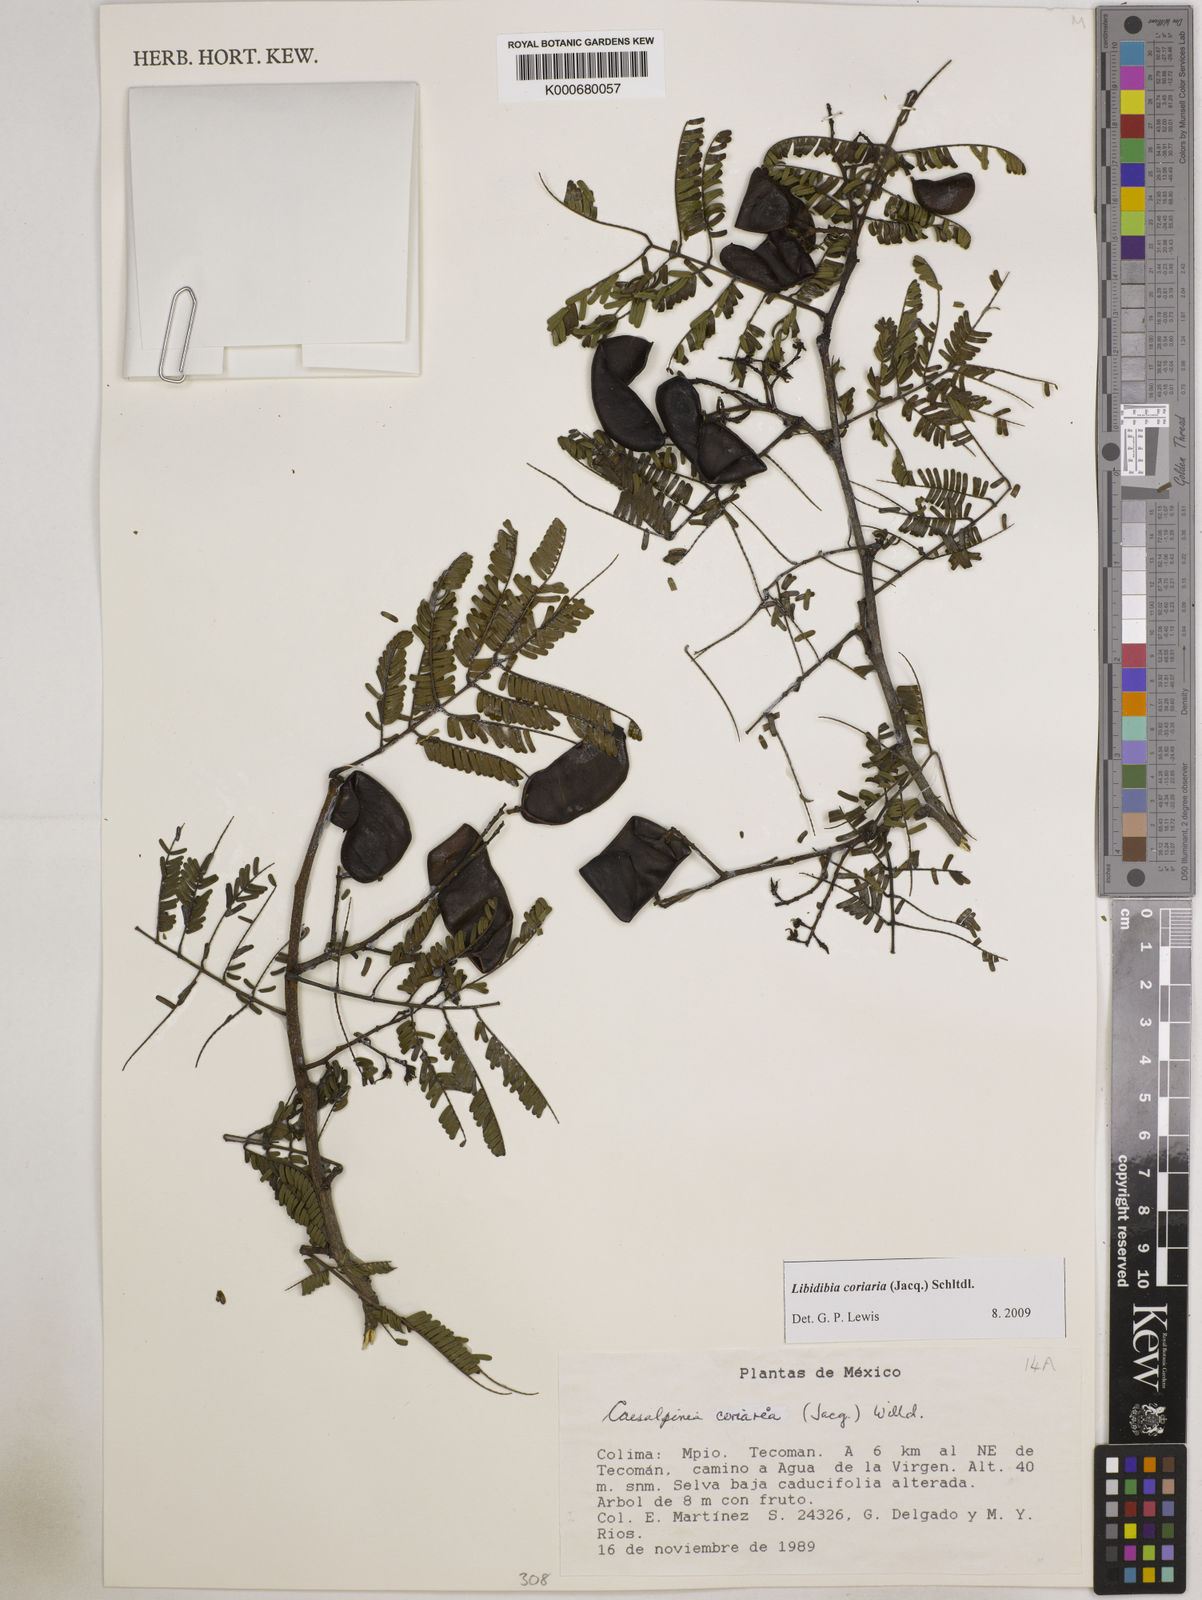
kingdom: Plantae
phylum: Tracheophyta
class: Magnoliopsida
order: Fabales
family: Fabaceae
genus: Libidibia
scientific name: Libidibia coriaria
